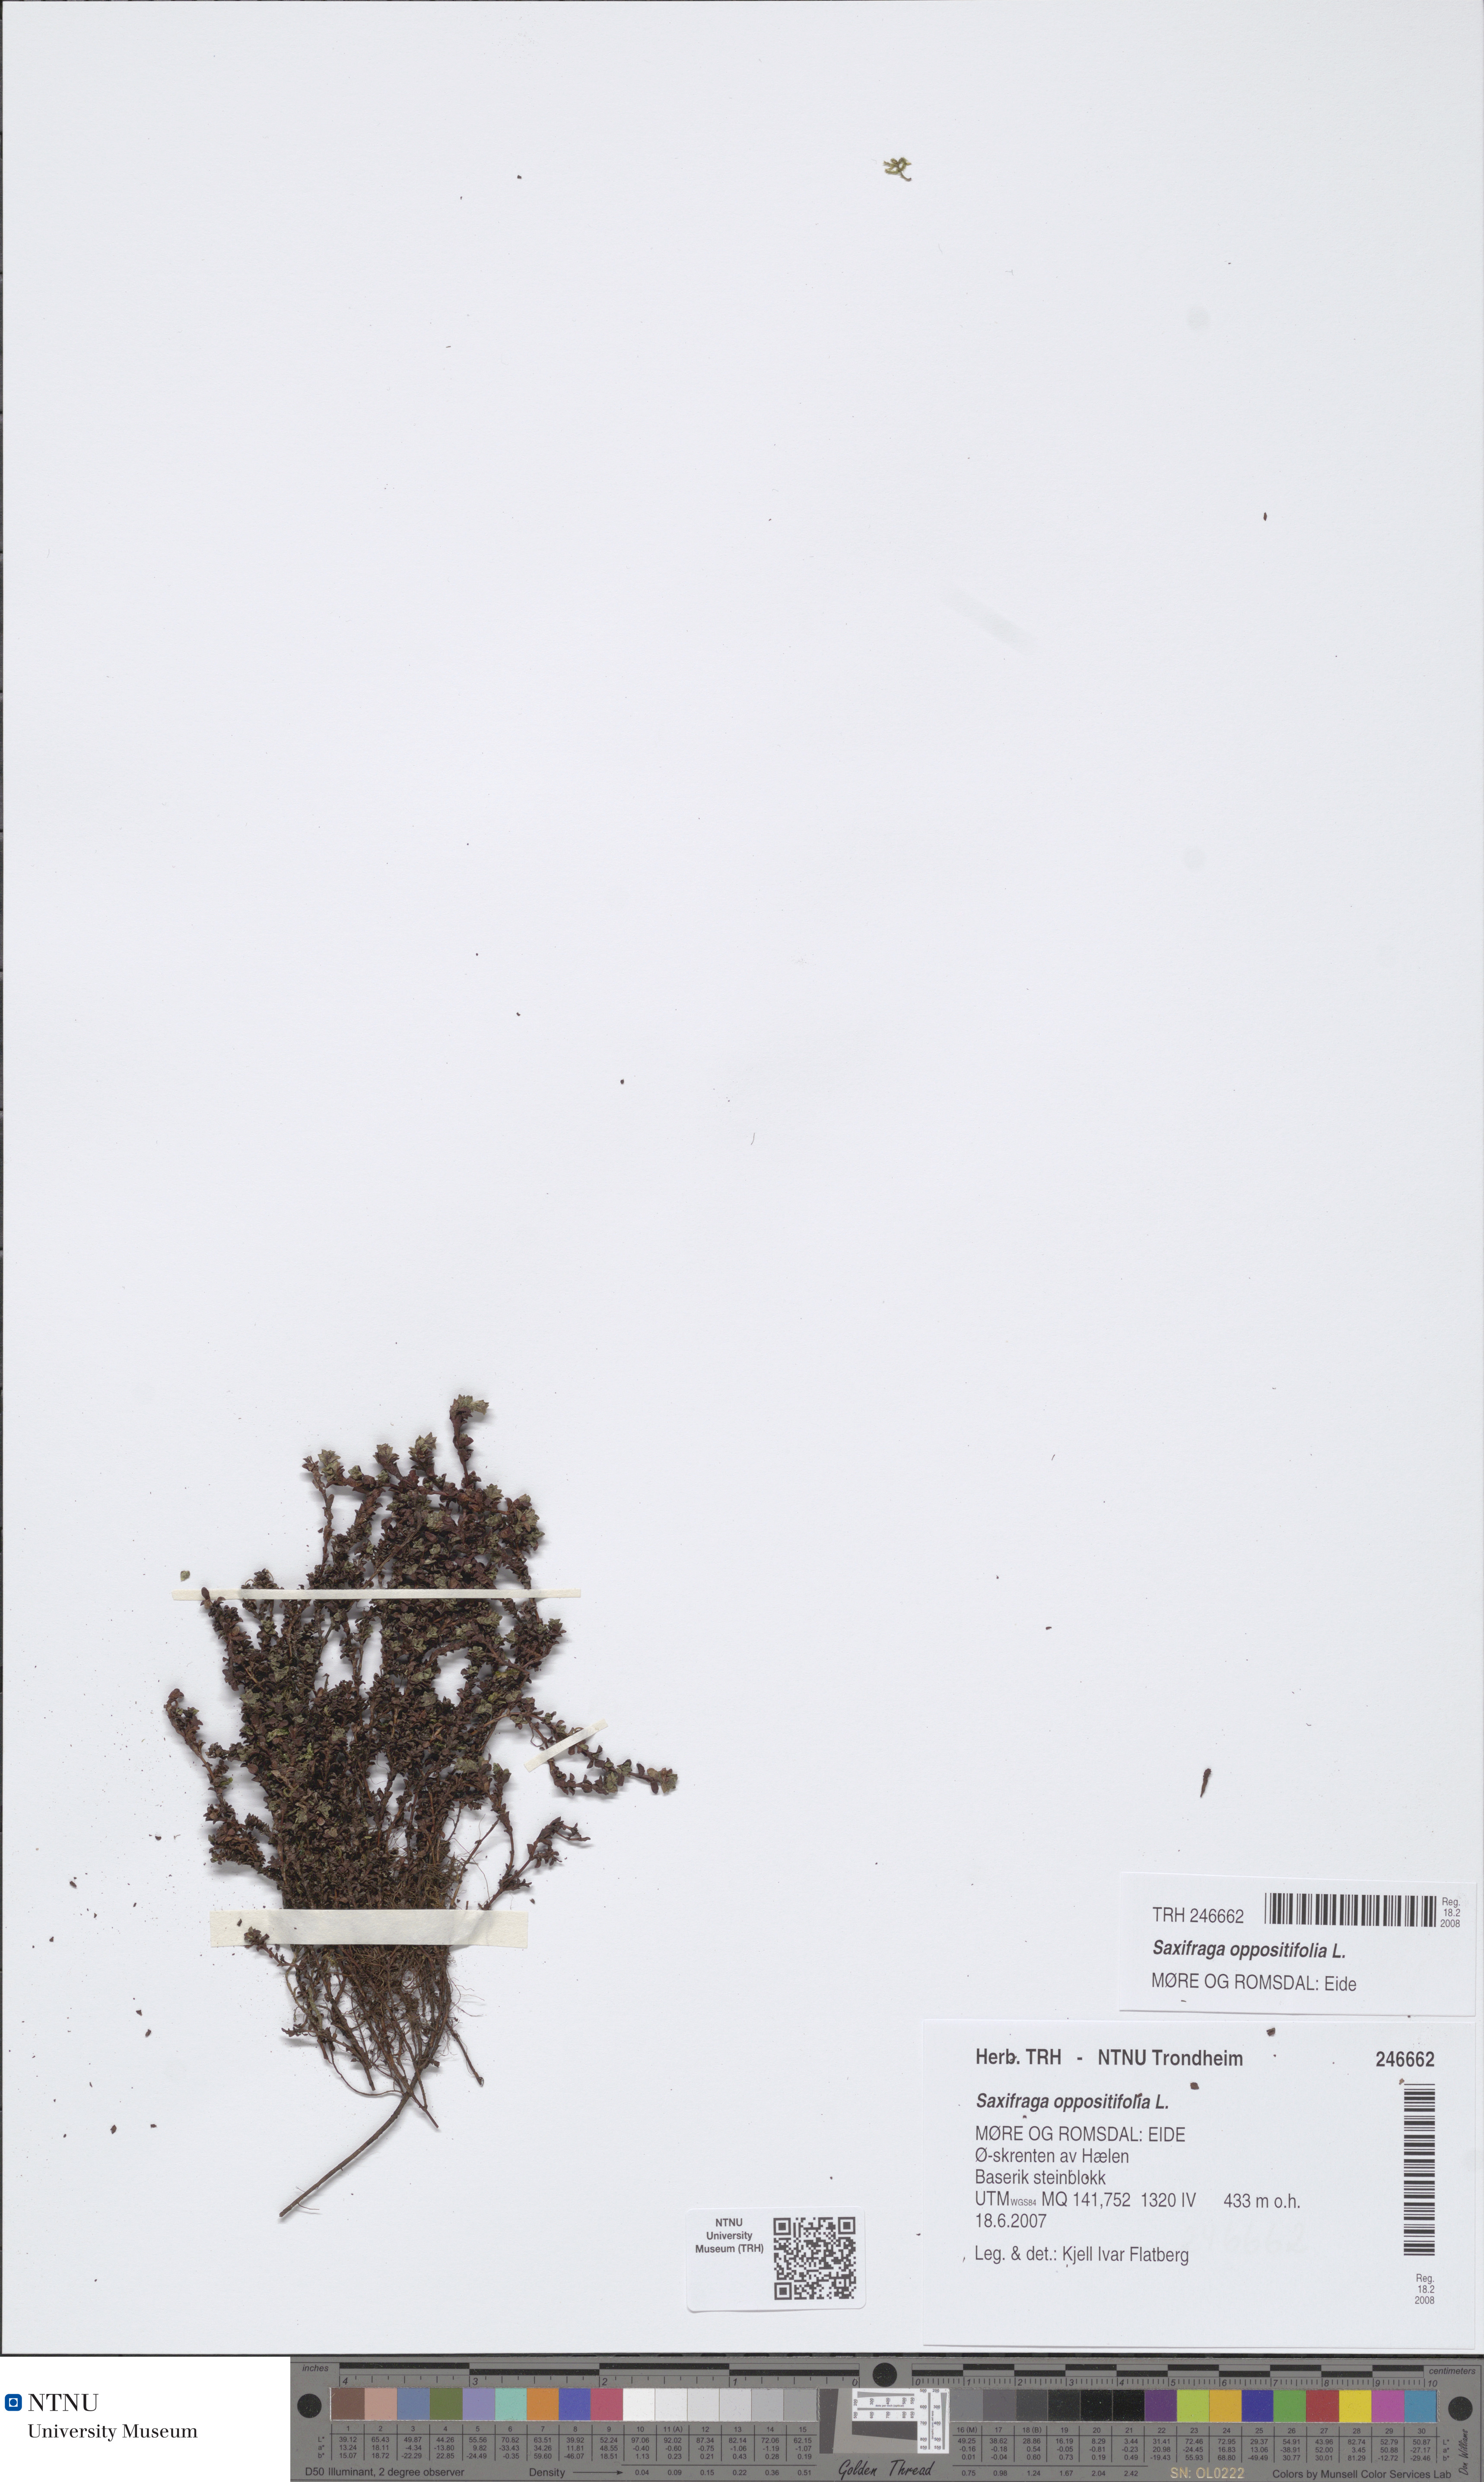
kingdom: Plantae
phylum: Tracheophyta
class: Magnoliopsida
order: Saxifragales
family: Saxifragaceae
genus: Saxifraga
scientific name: Saxifraga oppositifolia
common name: Purple saxifrage
